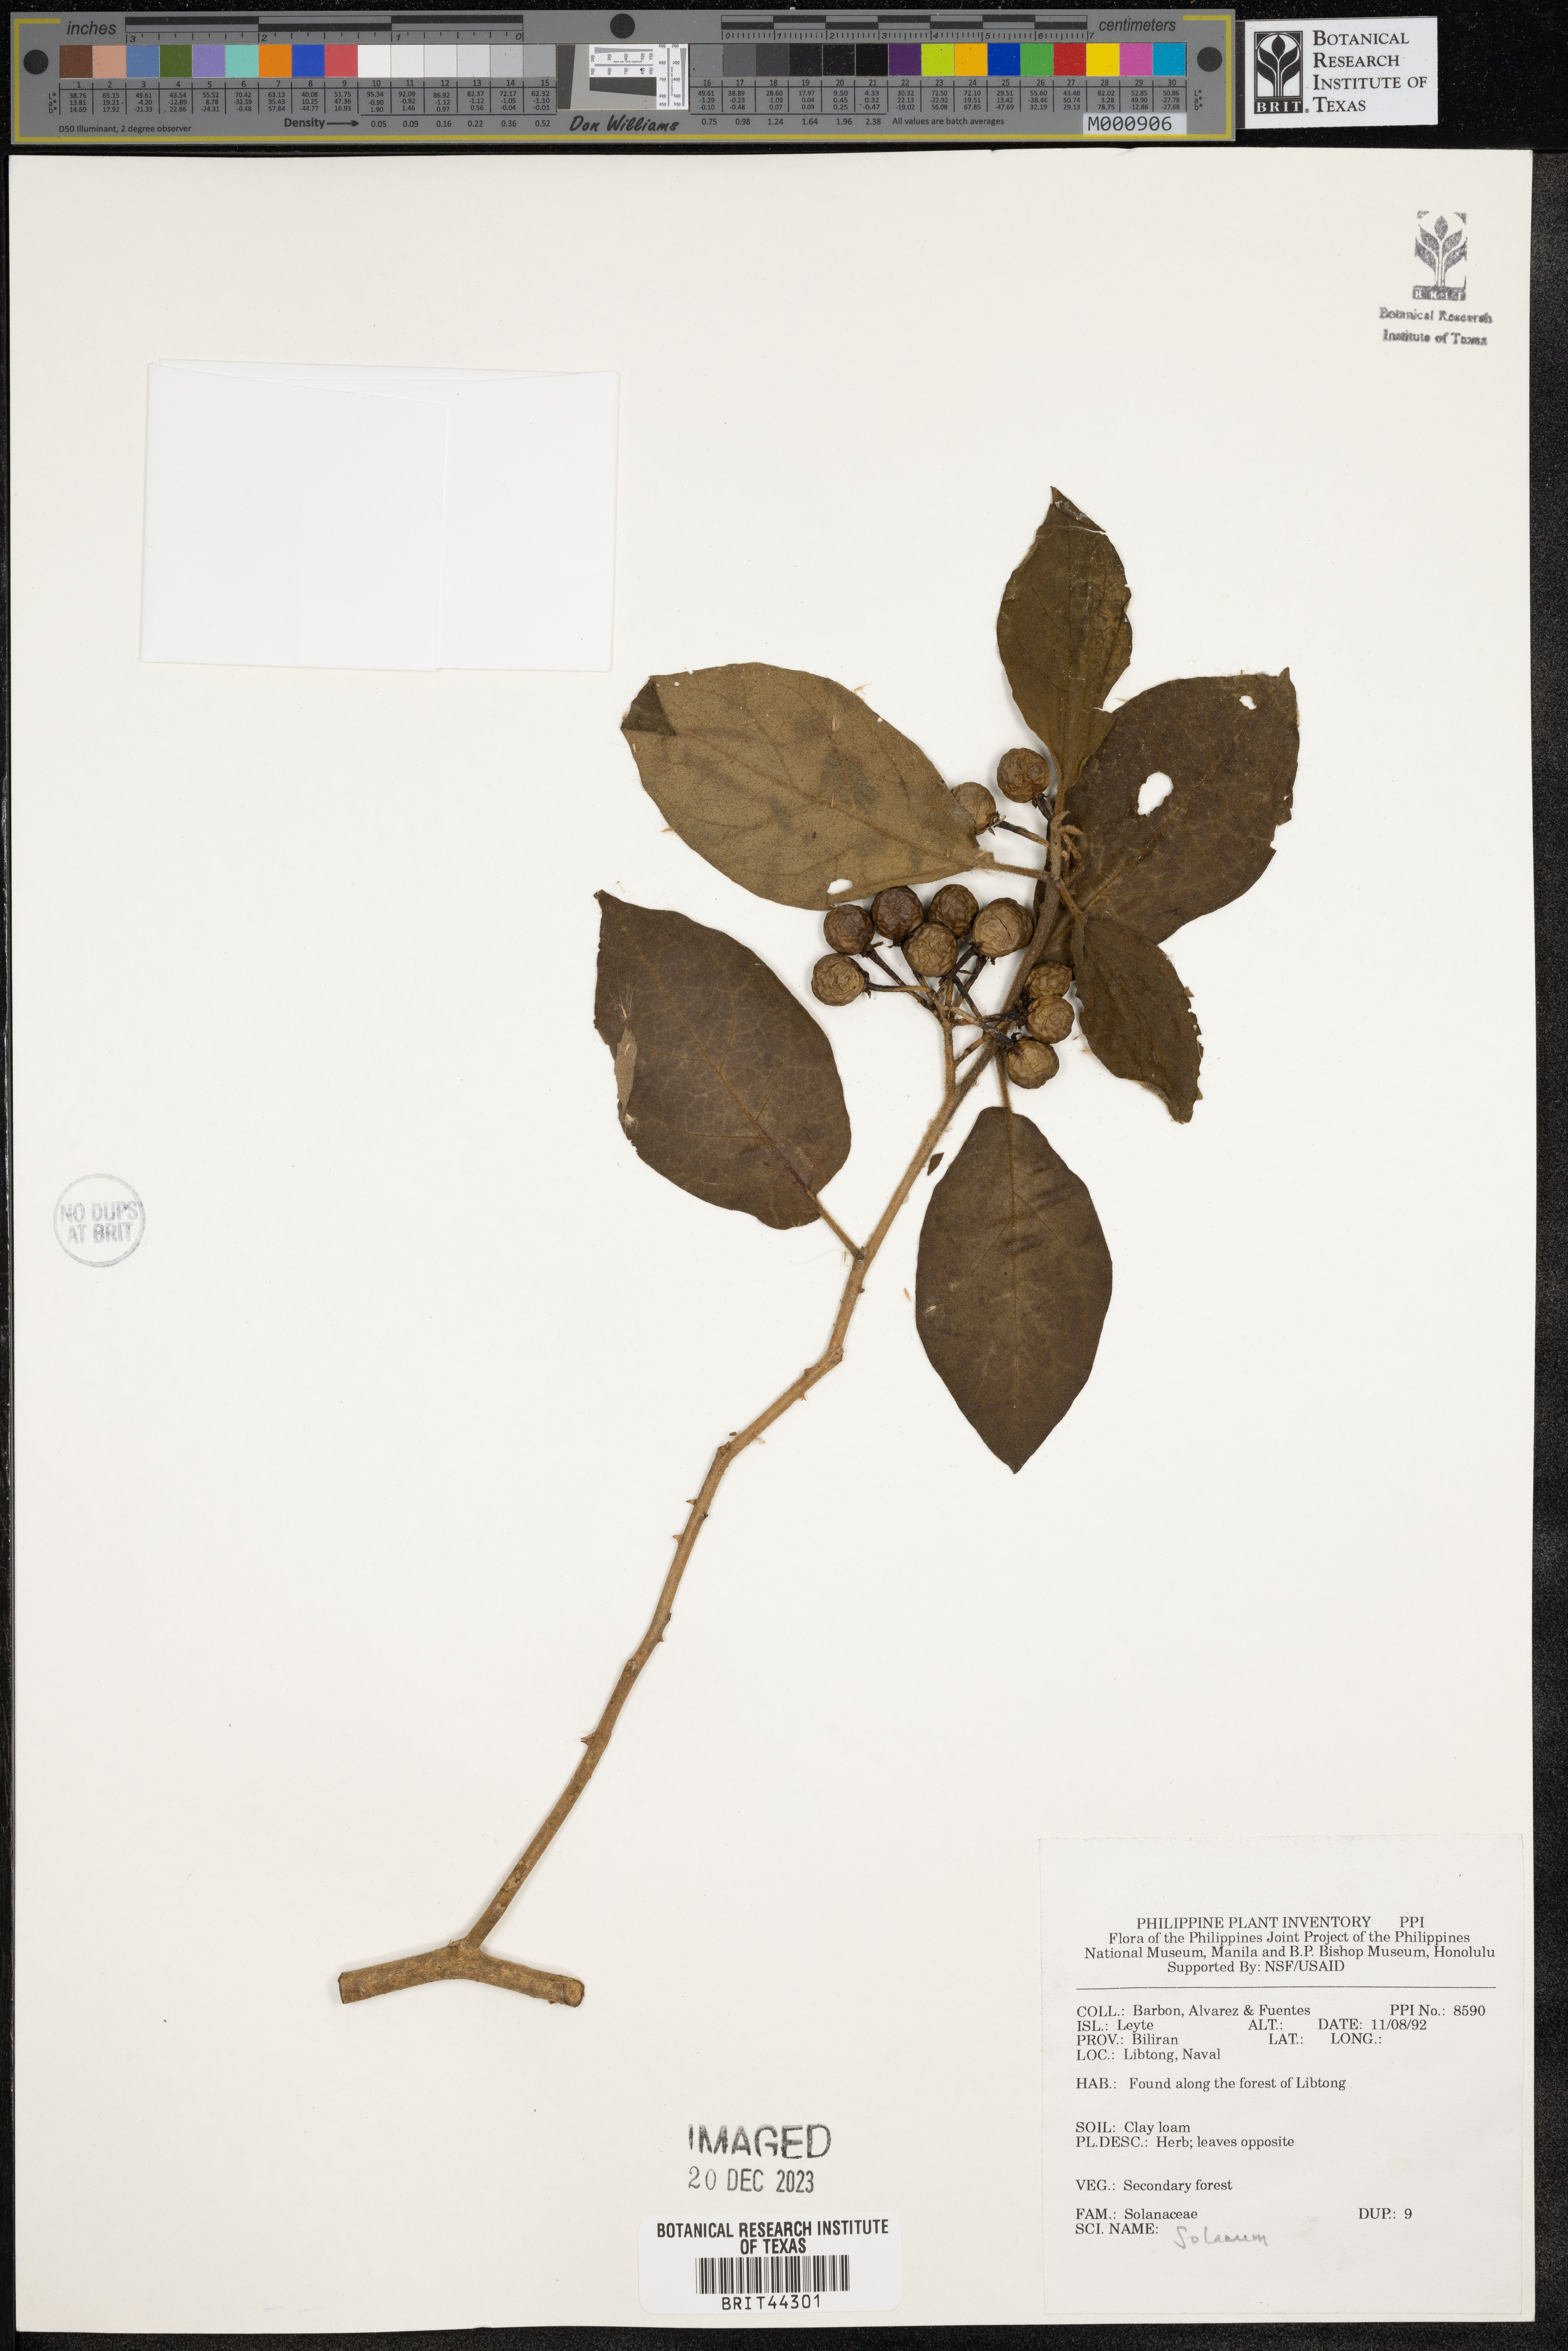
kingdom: Plantae
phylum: Tracheophyta
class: Magnoliopsida
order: Solanales
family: Solanaceae
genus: Solanum
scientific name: Solanum
